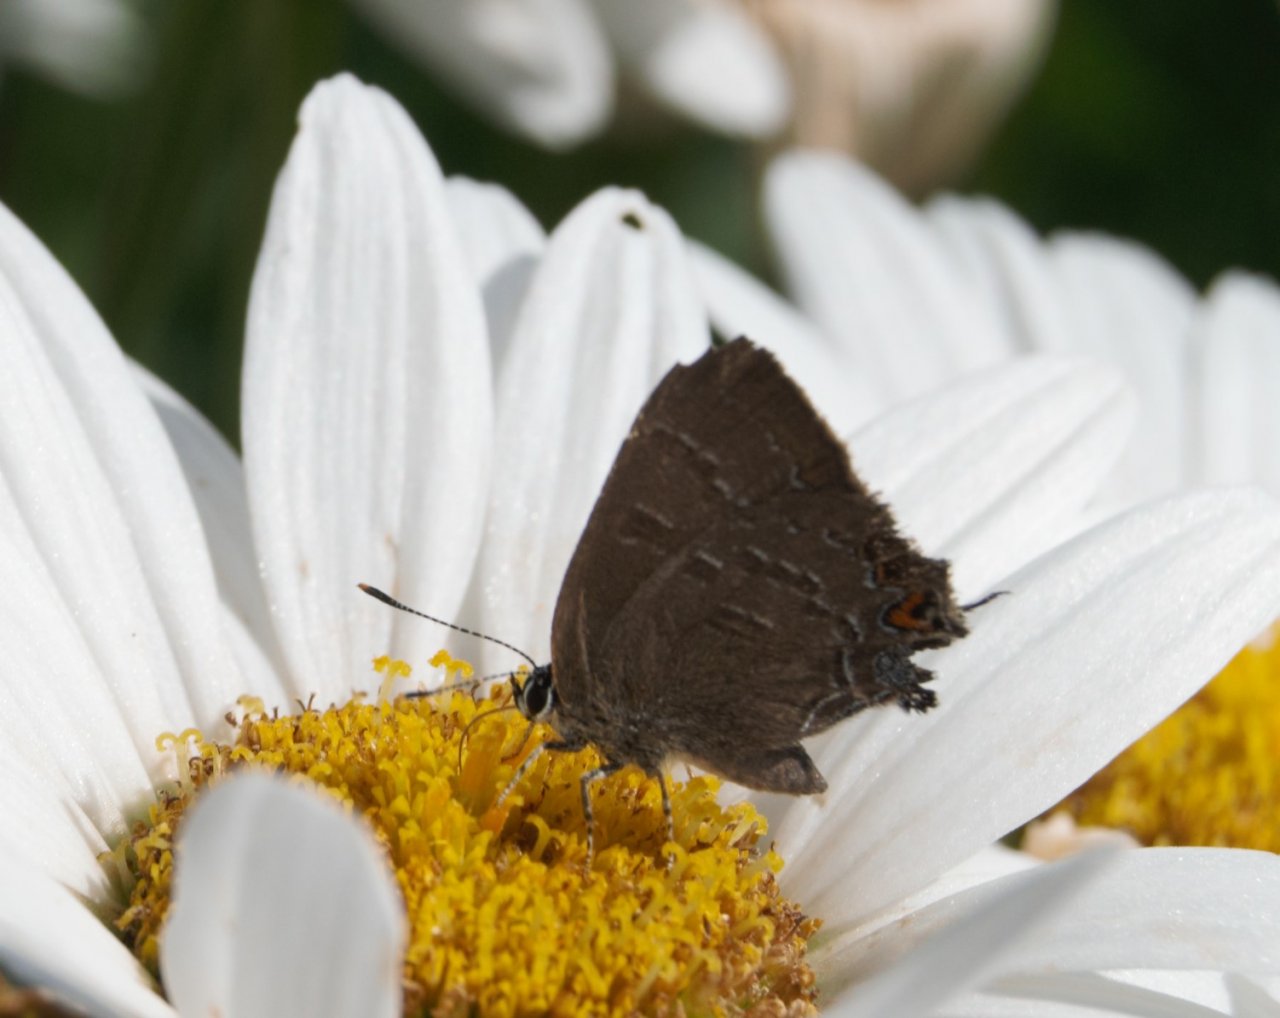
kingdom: Animalia
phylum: Arthropoda
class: Insecta
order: Lepidoptera
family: Lycaenidae
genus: Satyrium
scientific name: Satyrium calanus
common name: Banded Hairstreak
